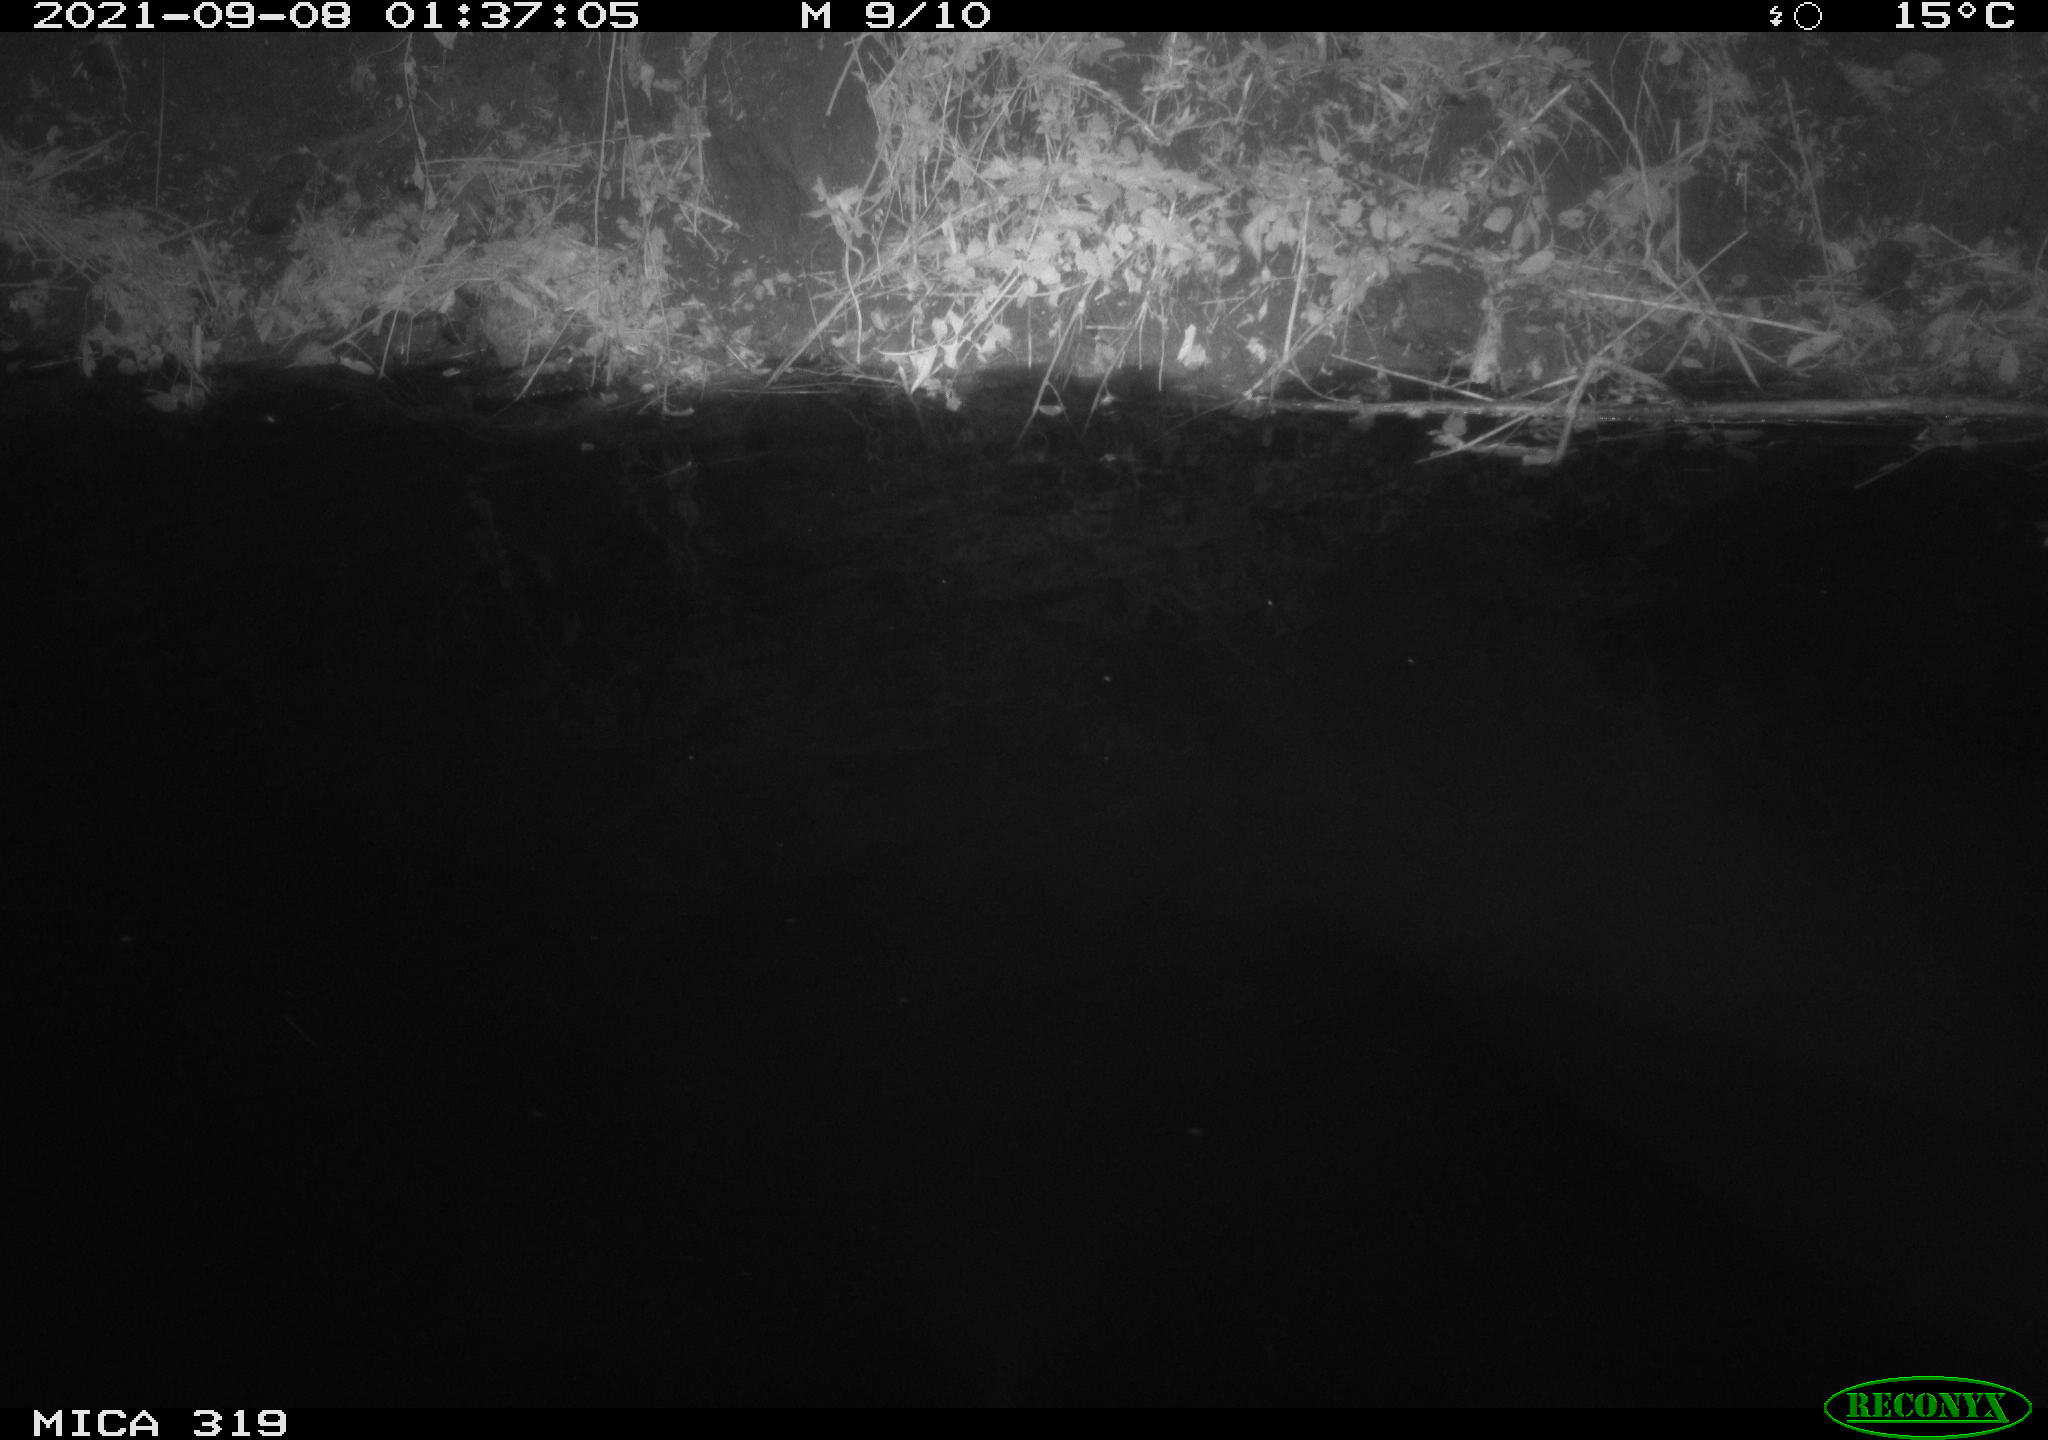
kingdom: Animalia
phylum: Chordata
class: Aves
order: Anseriformes
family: Anatidae
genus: Anas
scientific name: Anas platyrhynchos
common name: Mallard
